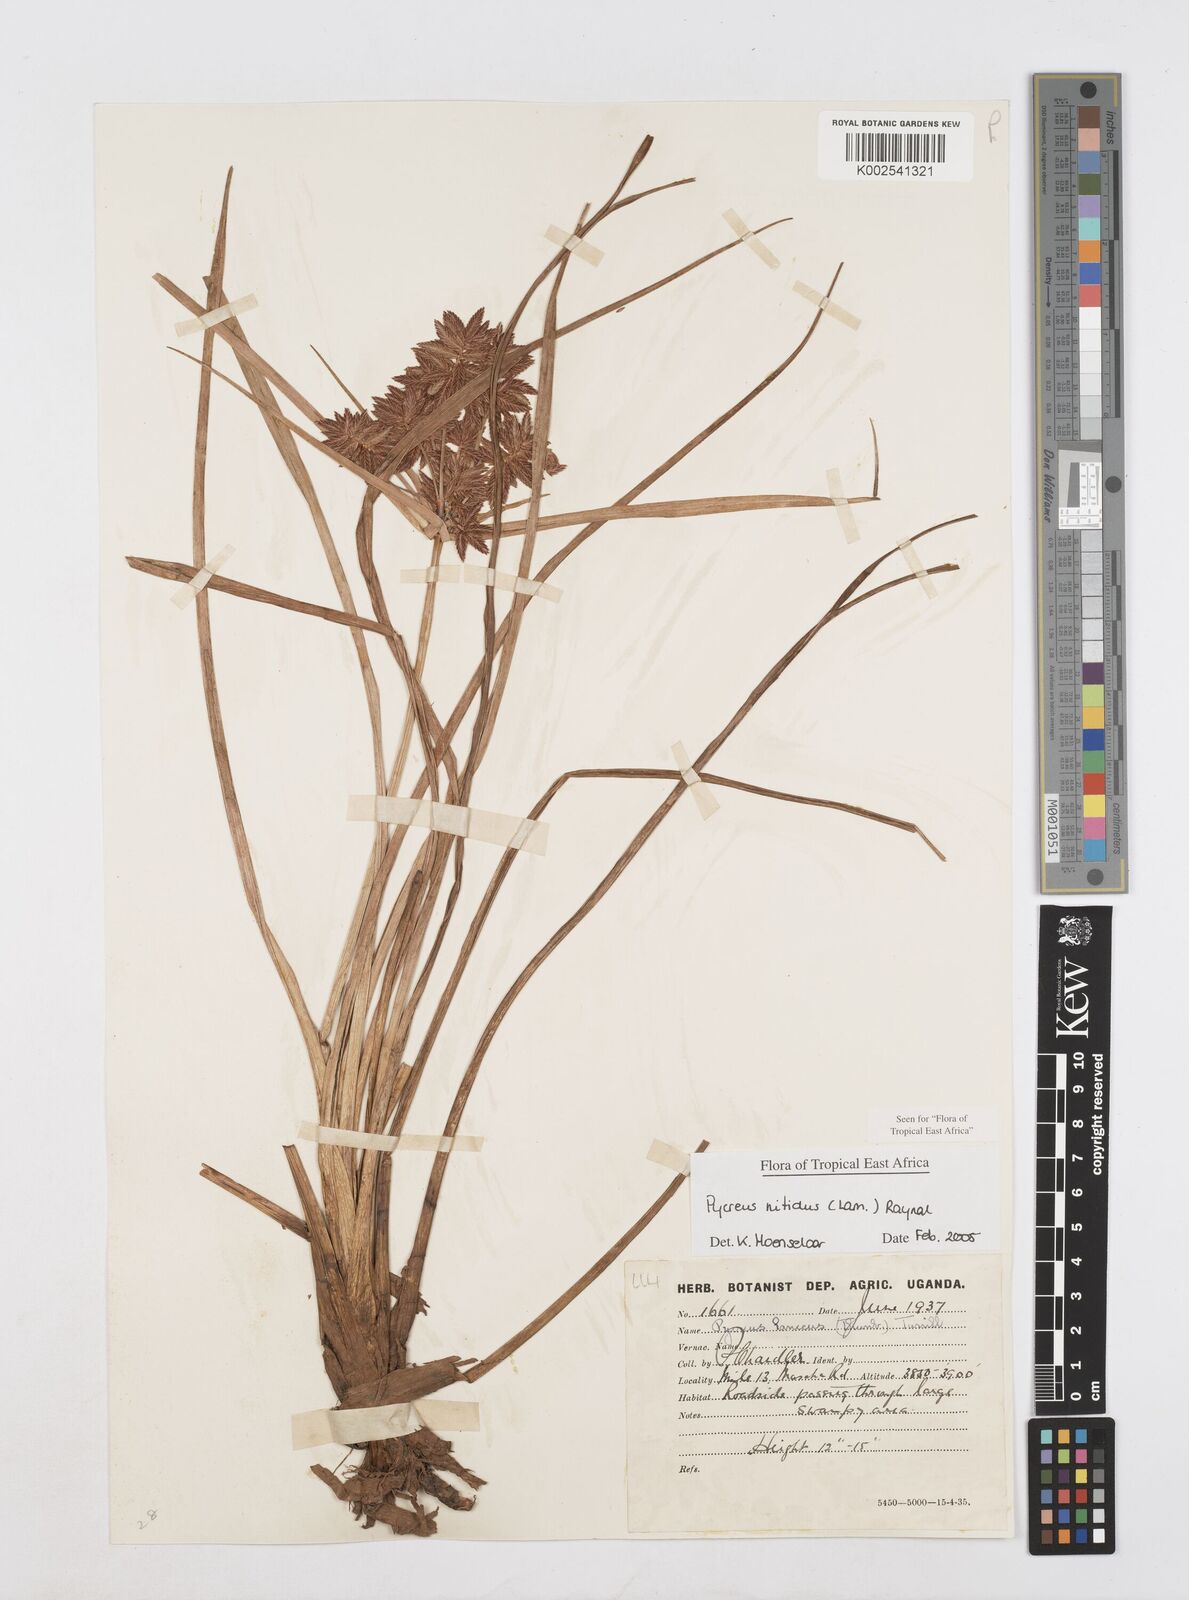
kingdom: Plantae
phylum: Tracheophyta
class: Liliopsida
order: Poales
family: Cyperaceae
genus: Cyperus
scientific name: Cyperus nitidus
